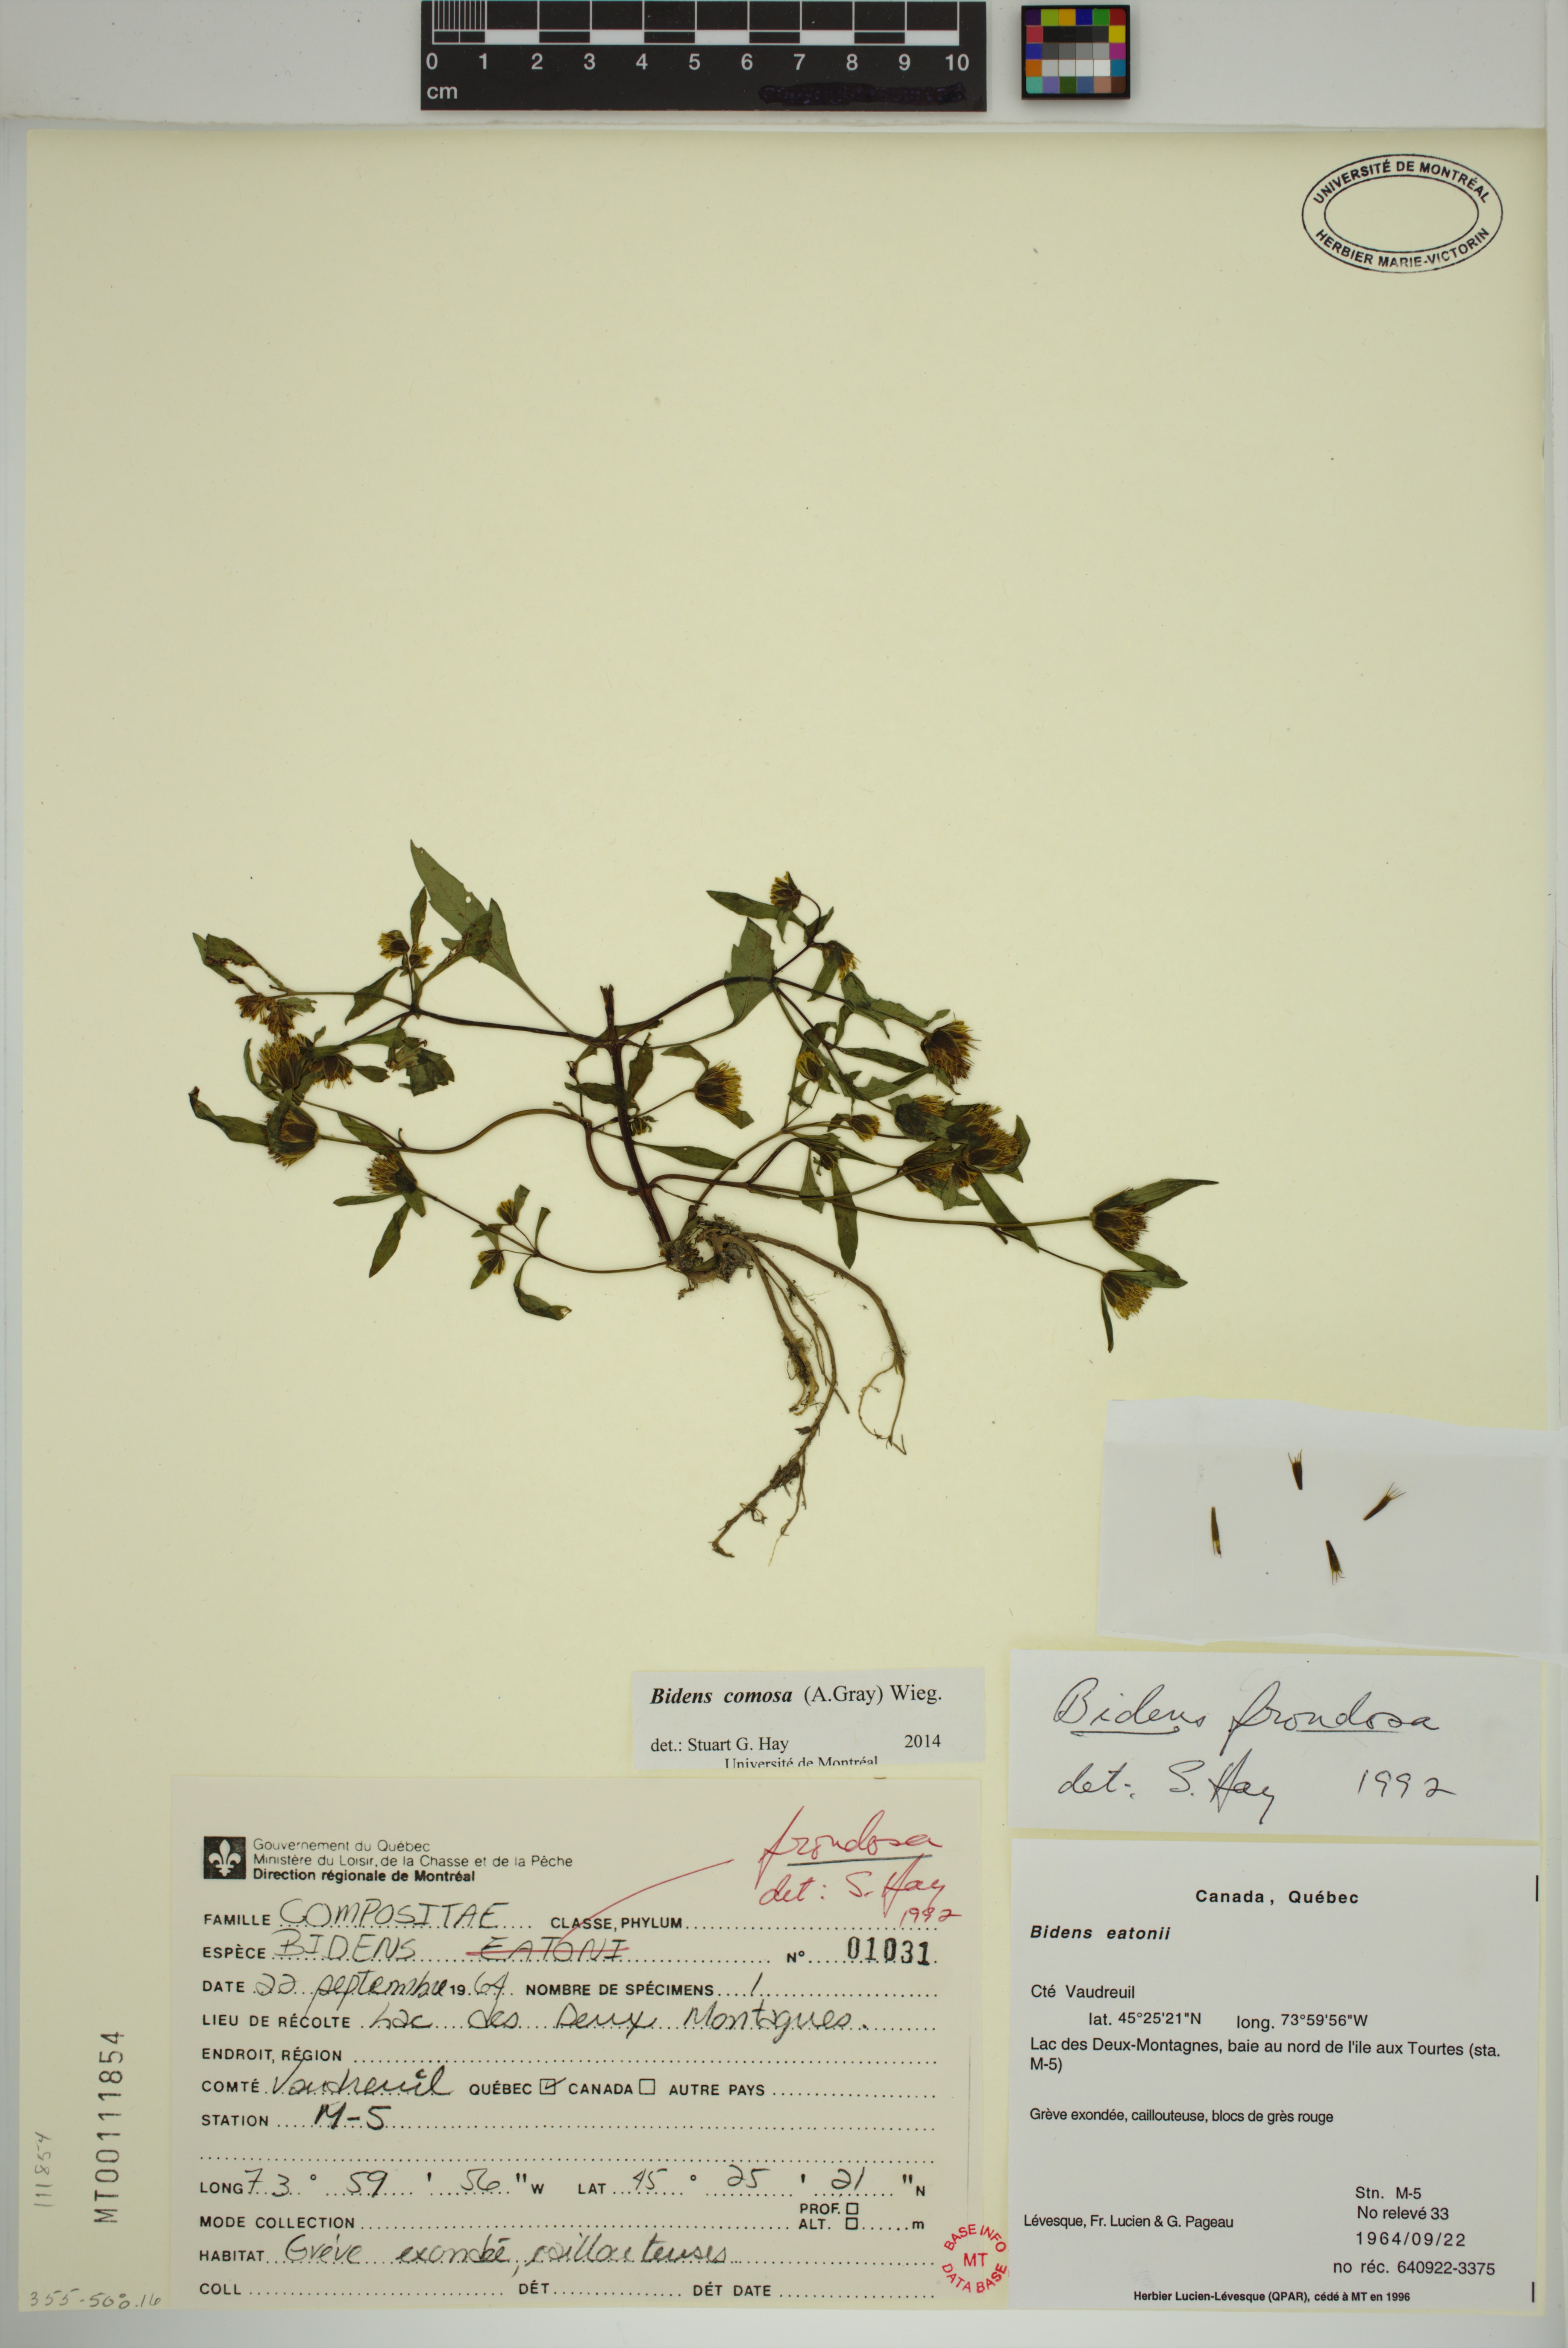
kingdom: Plantae
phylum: Tracheophyta
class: Magnoliopsida
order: Asterales
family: Asteraceae
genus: Bidens
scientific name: Bidens tripartita
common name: Trifid bur-marigold
